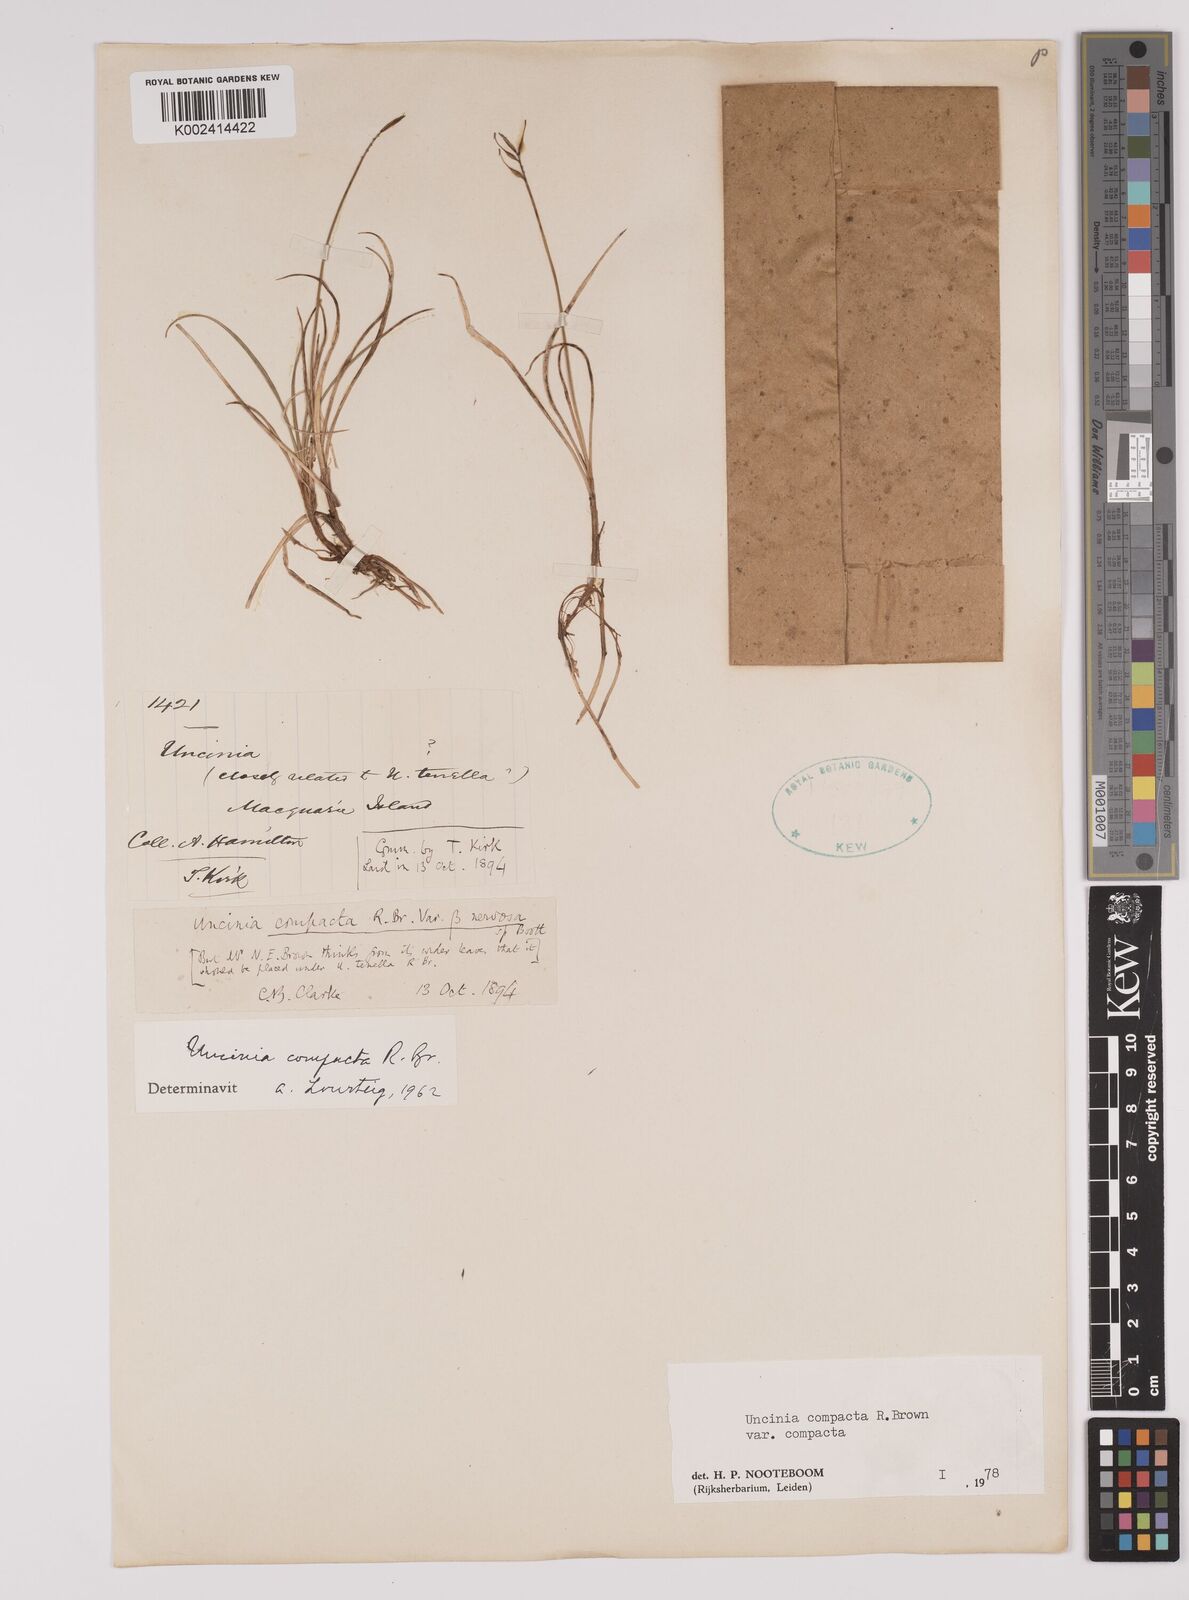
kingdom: Plantae
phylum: Tracheophyta
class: Liliopsida
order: Poales
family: Cyperaceae
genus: Carex
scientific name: Carex austrocompacta
